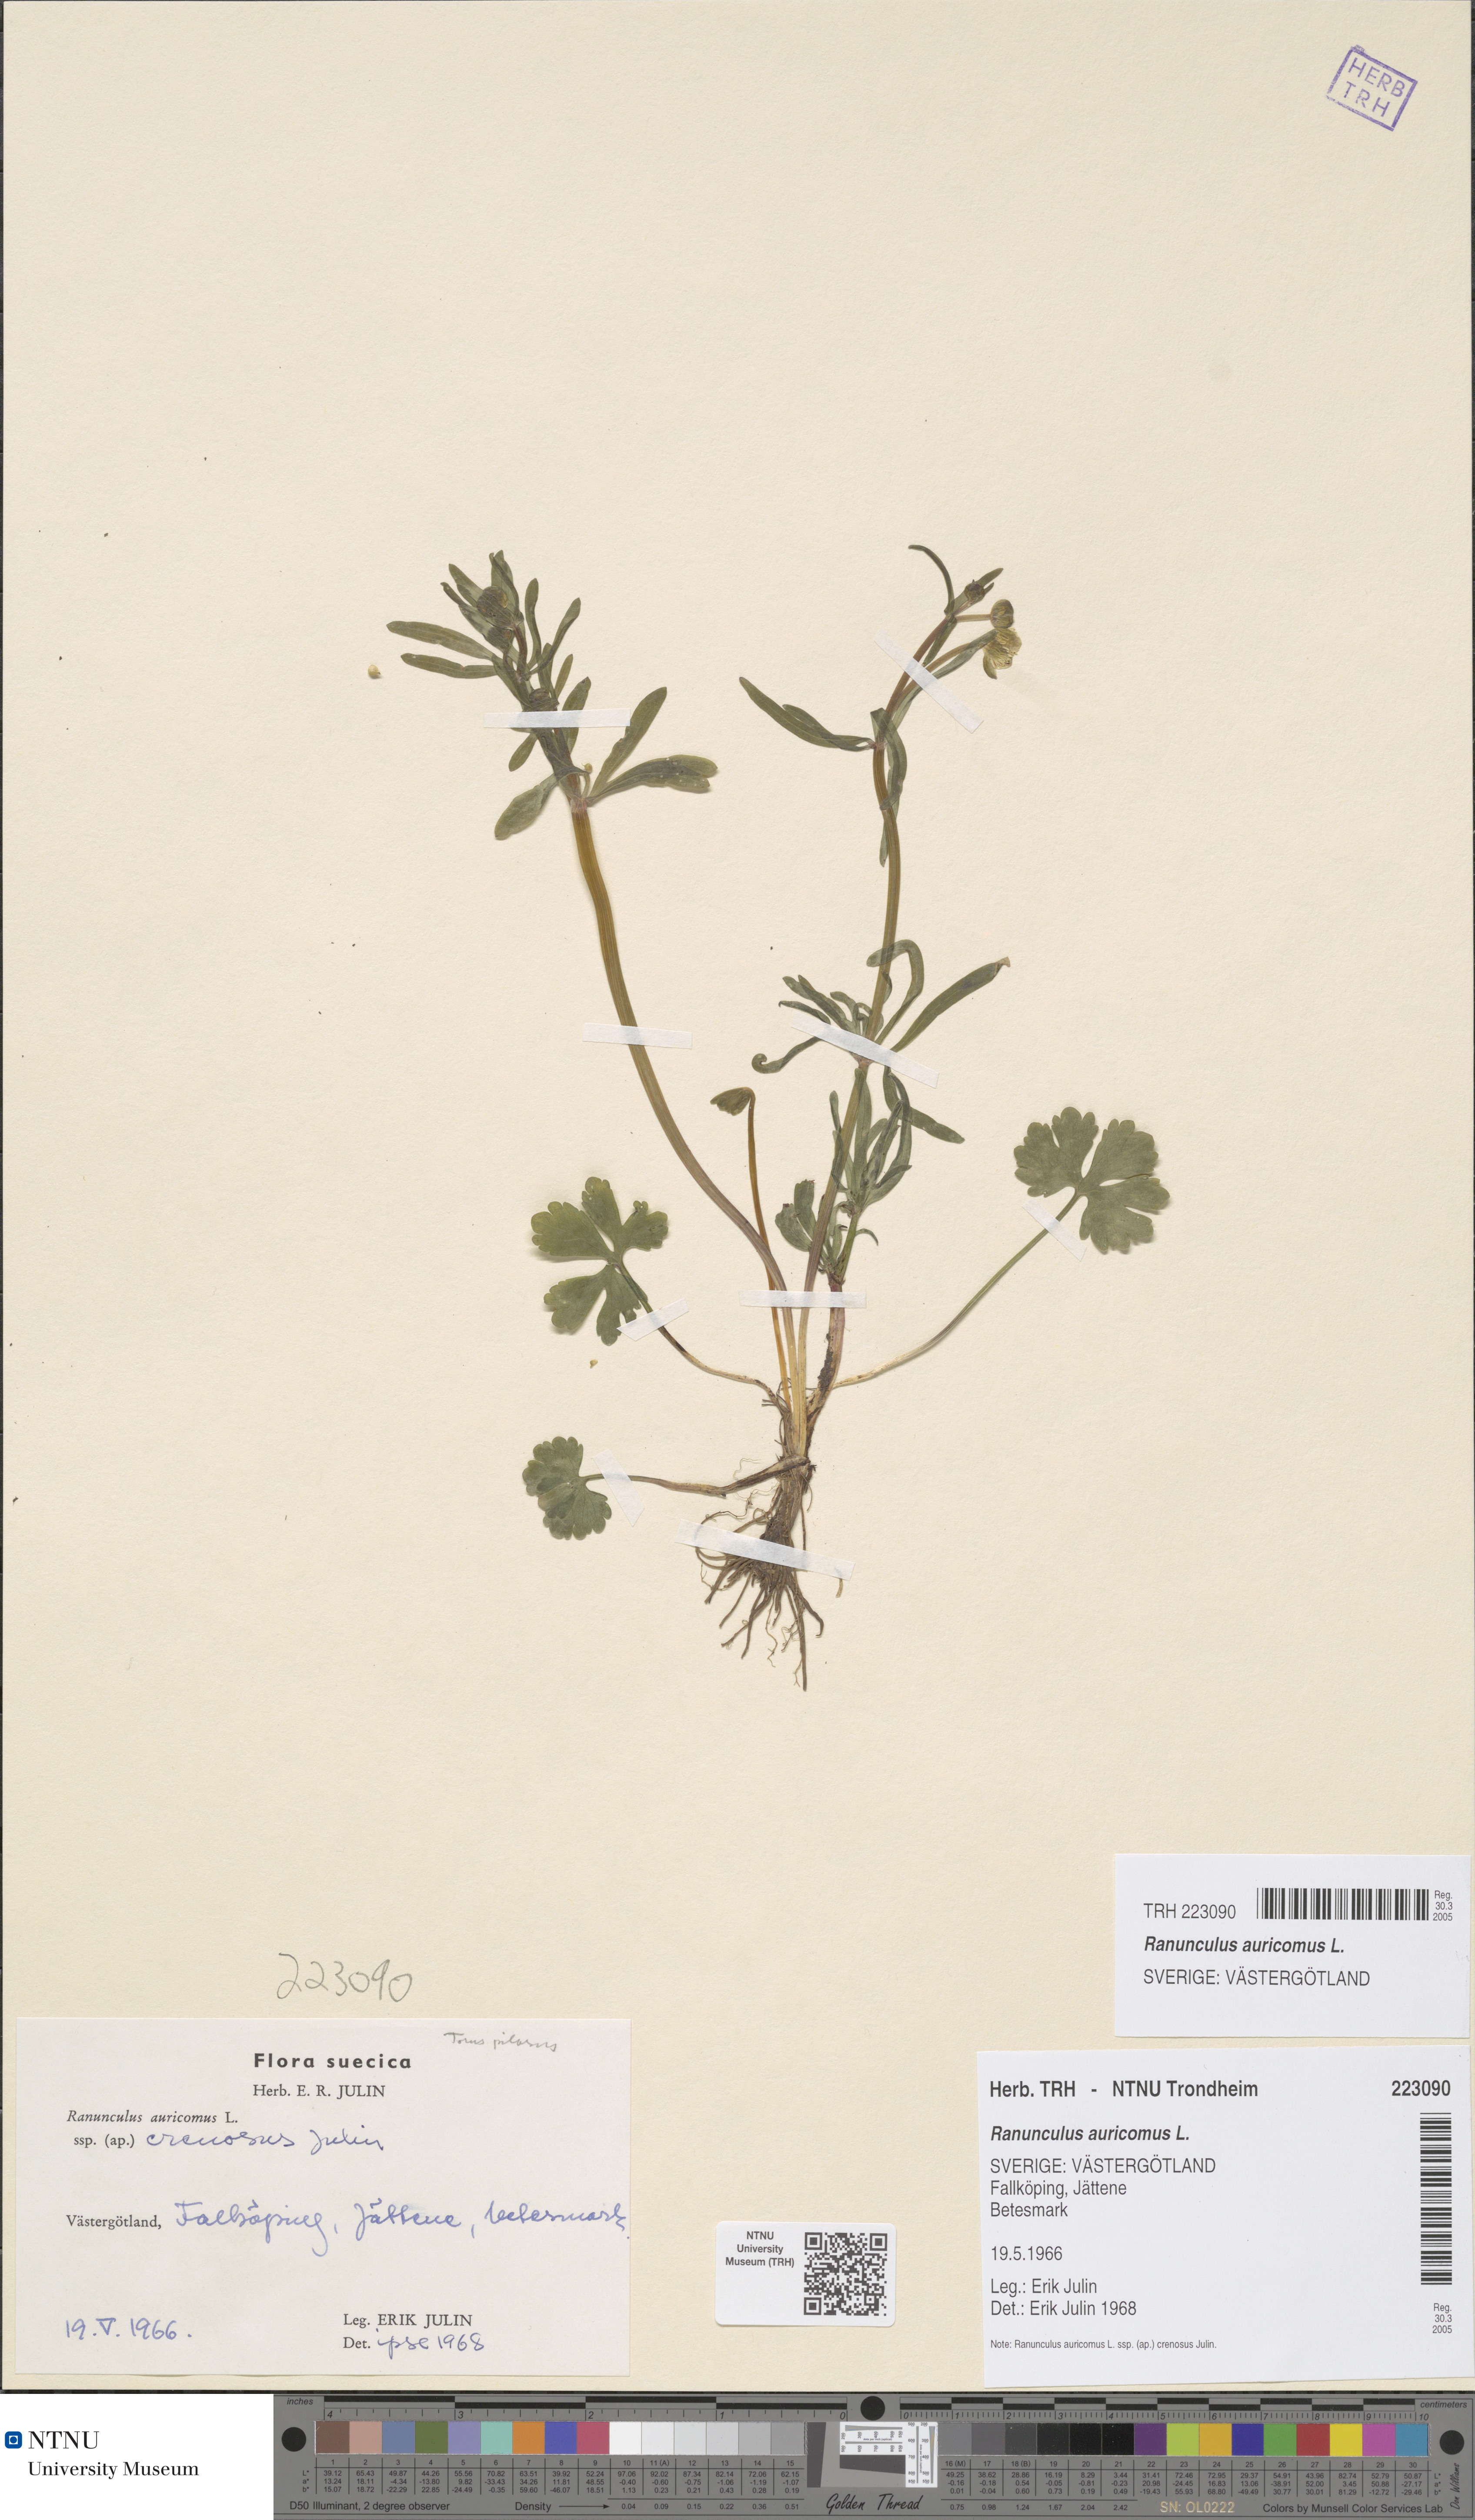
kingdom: Plantae
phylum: Tracheophyta
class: Magnoliopsida
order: Ranunculales
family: Ranunculaceae
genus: Ranunculus
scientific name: Ranunculus auricomus
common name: Goldilocks buttercup
